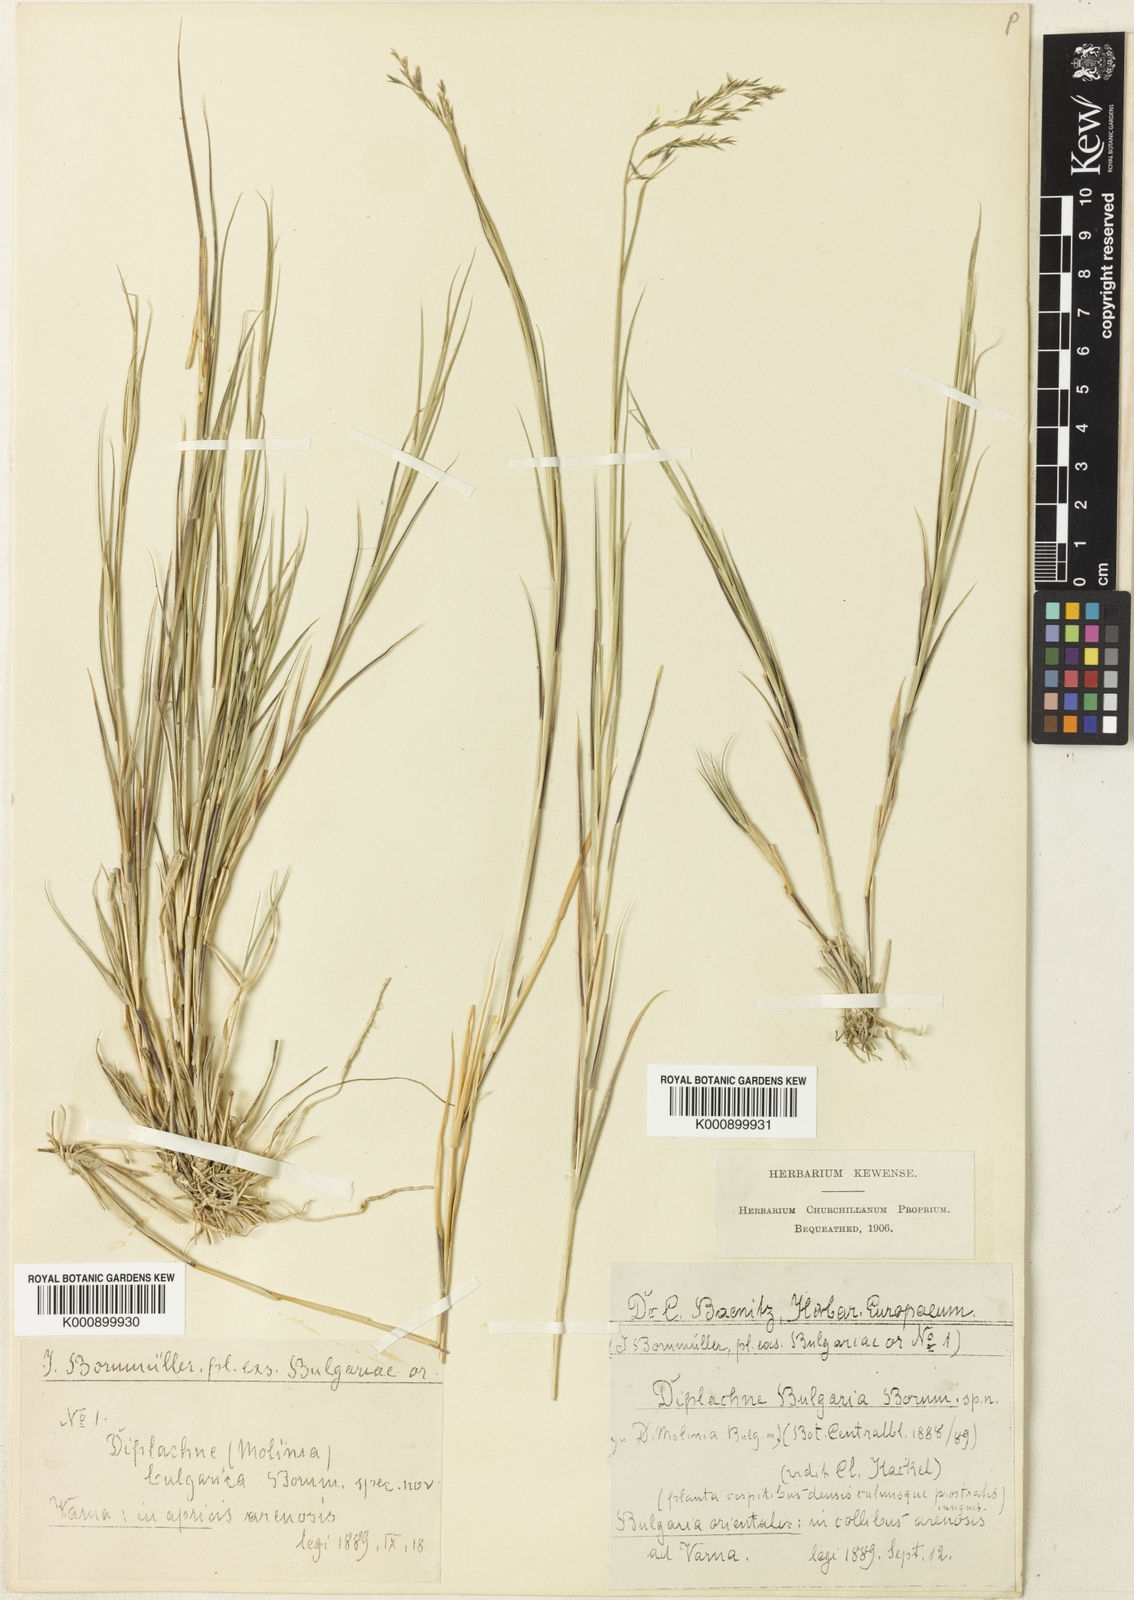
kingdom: Plantae
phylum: Tracheophyta
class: Liliopsida
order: Poales
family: Poaceae
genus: Cleistogenes
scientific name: Cleistogenes serotina
